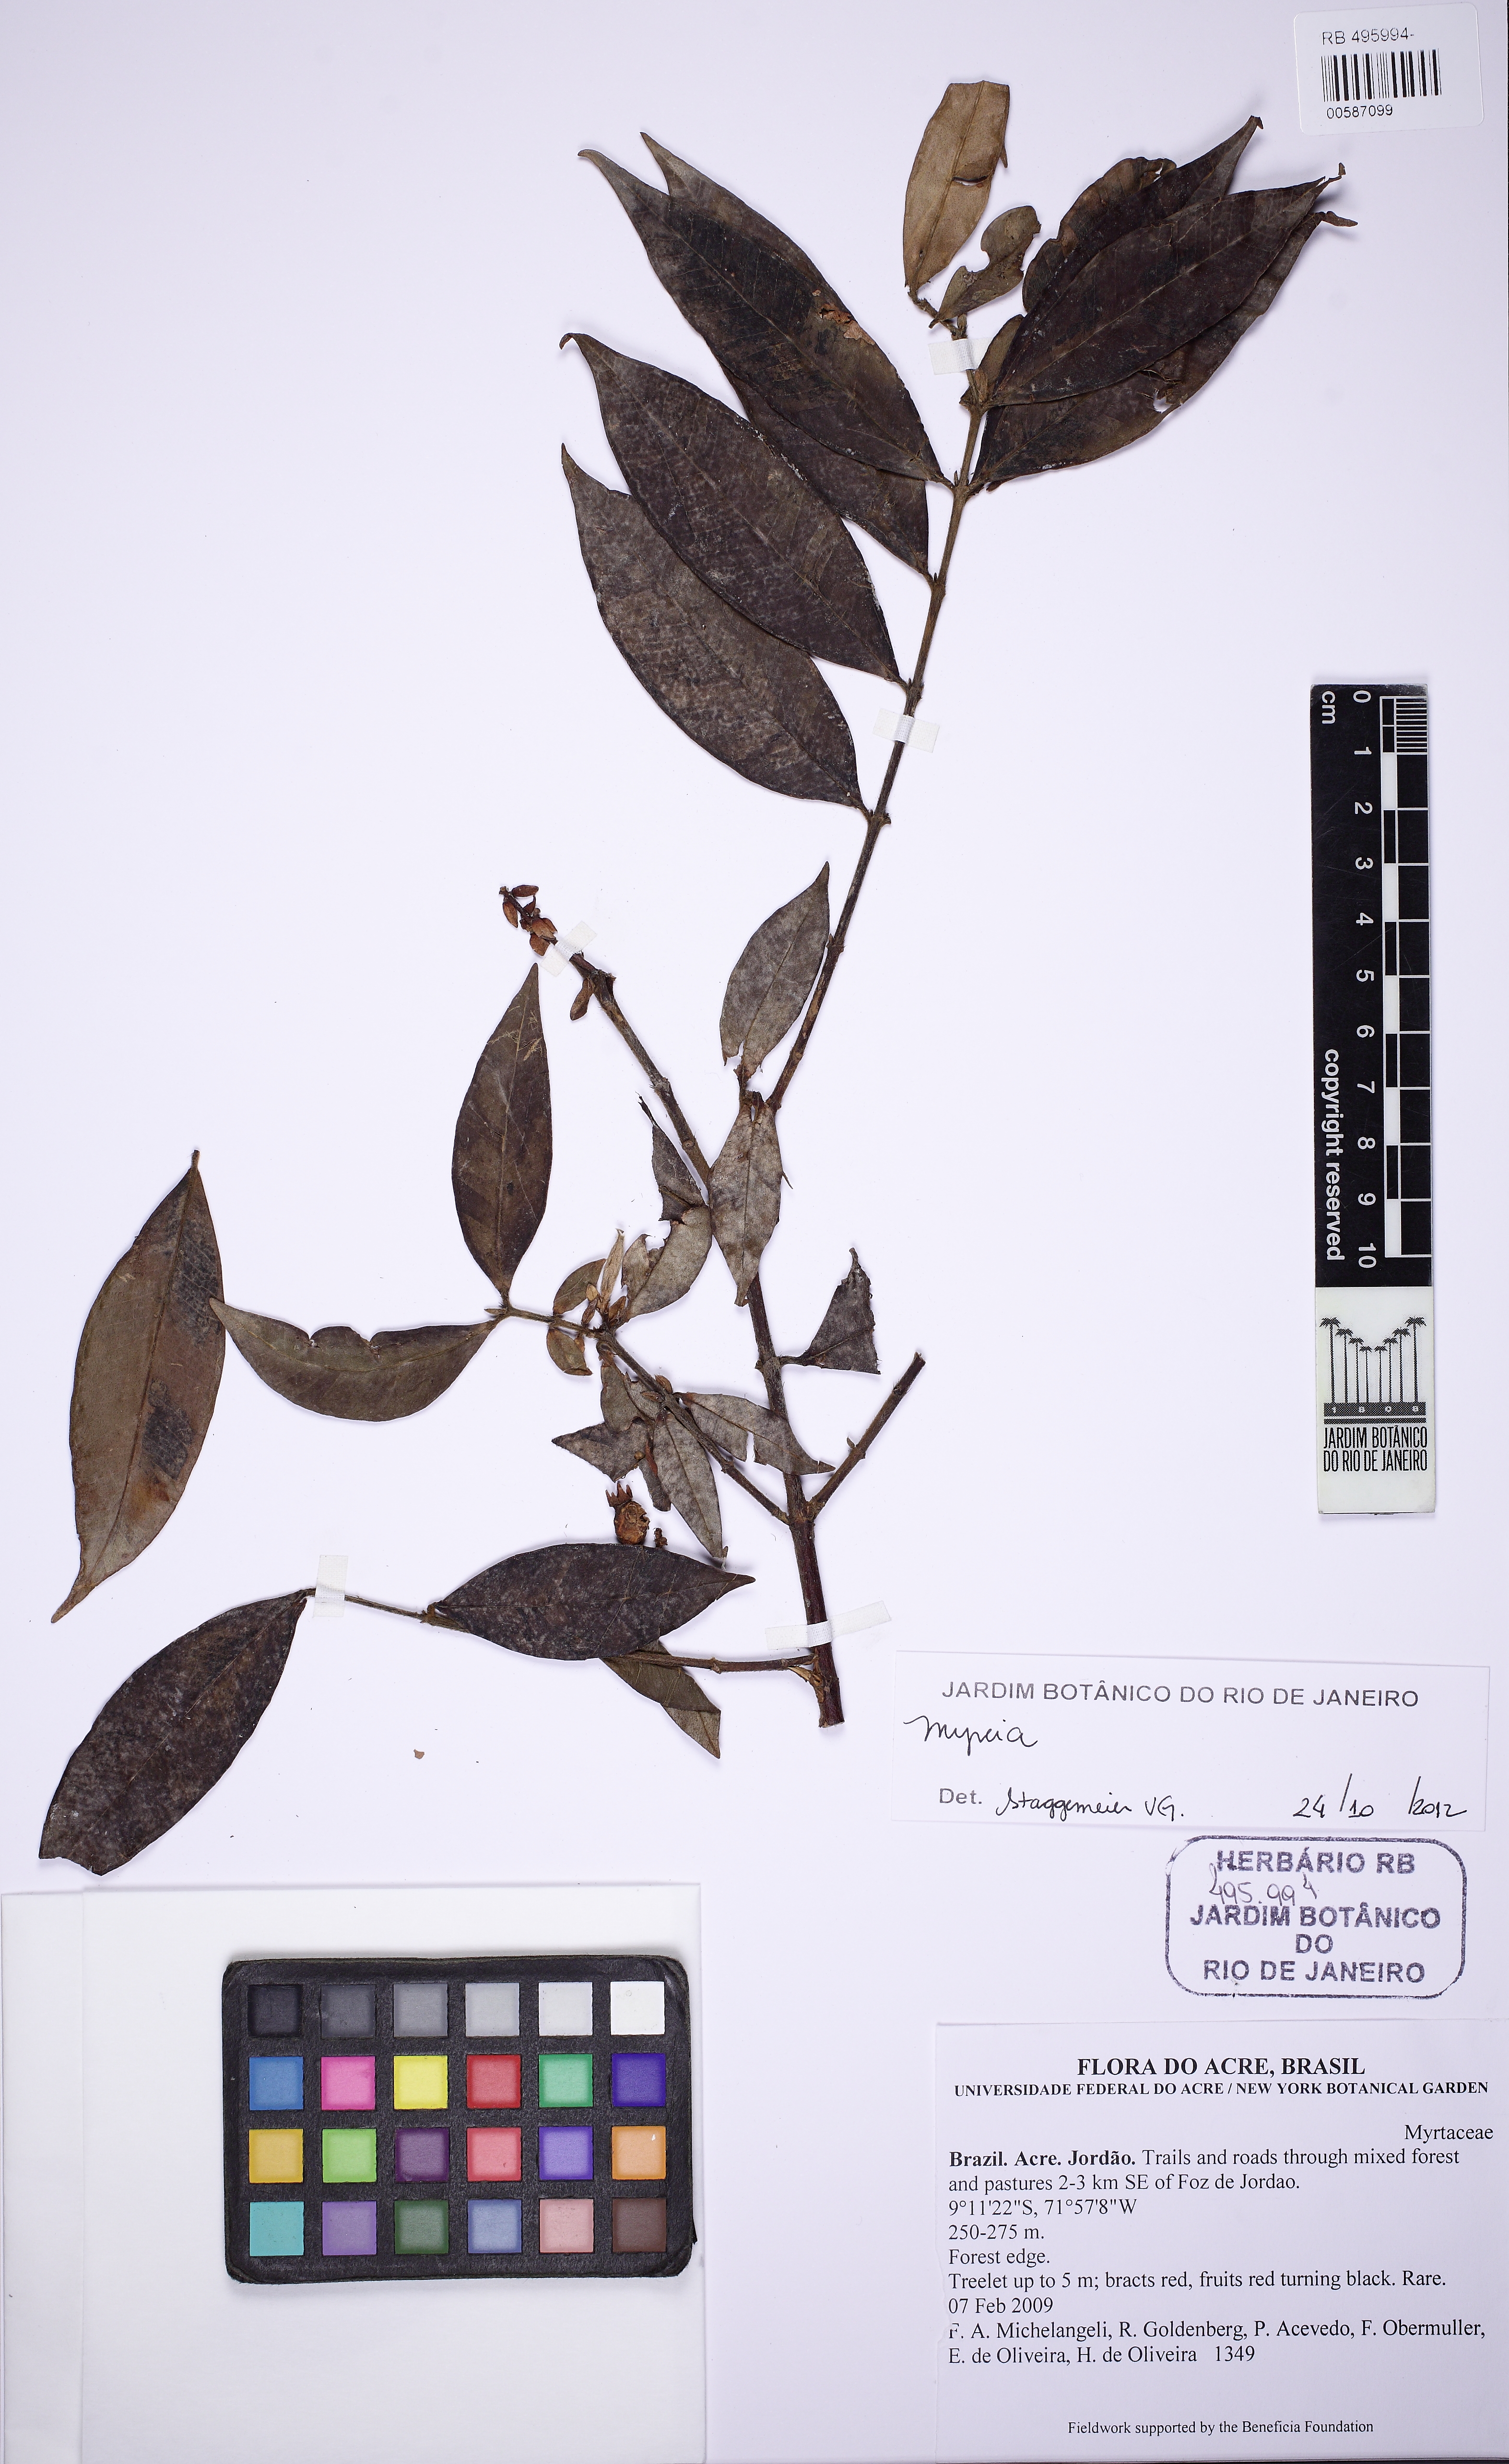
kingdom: Plantae
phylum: Tracheophyta
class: Magnoliopsida
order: Myrtales
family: Myrtaceae
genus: Myrcia
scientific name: Myrcia bracteata
